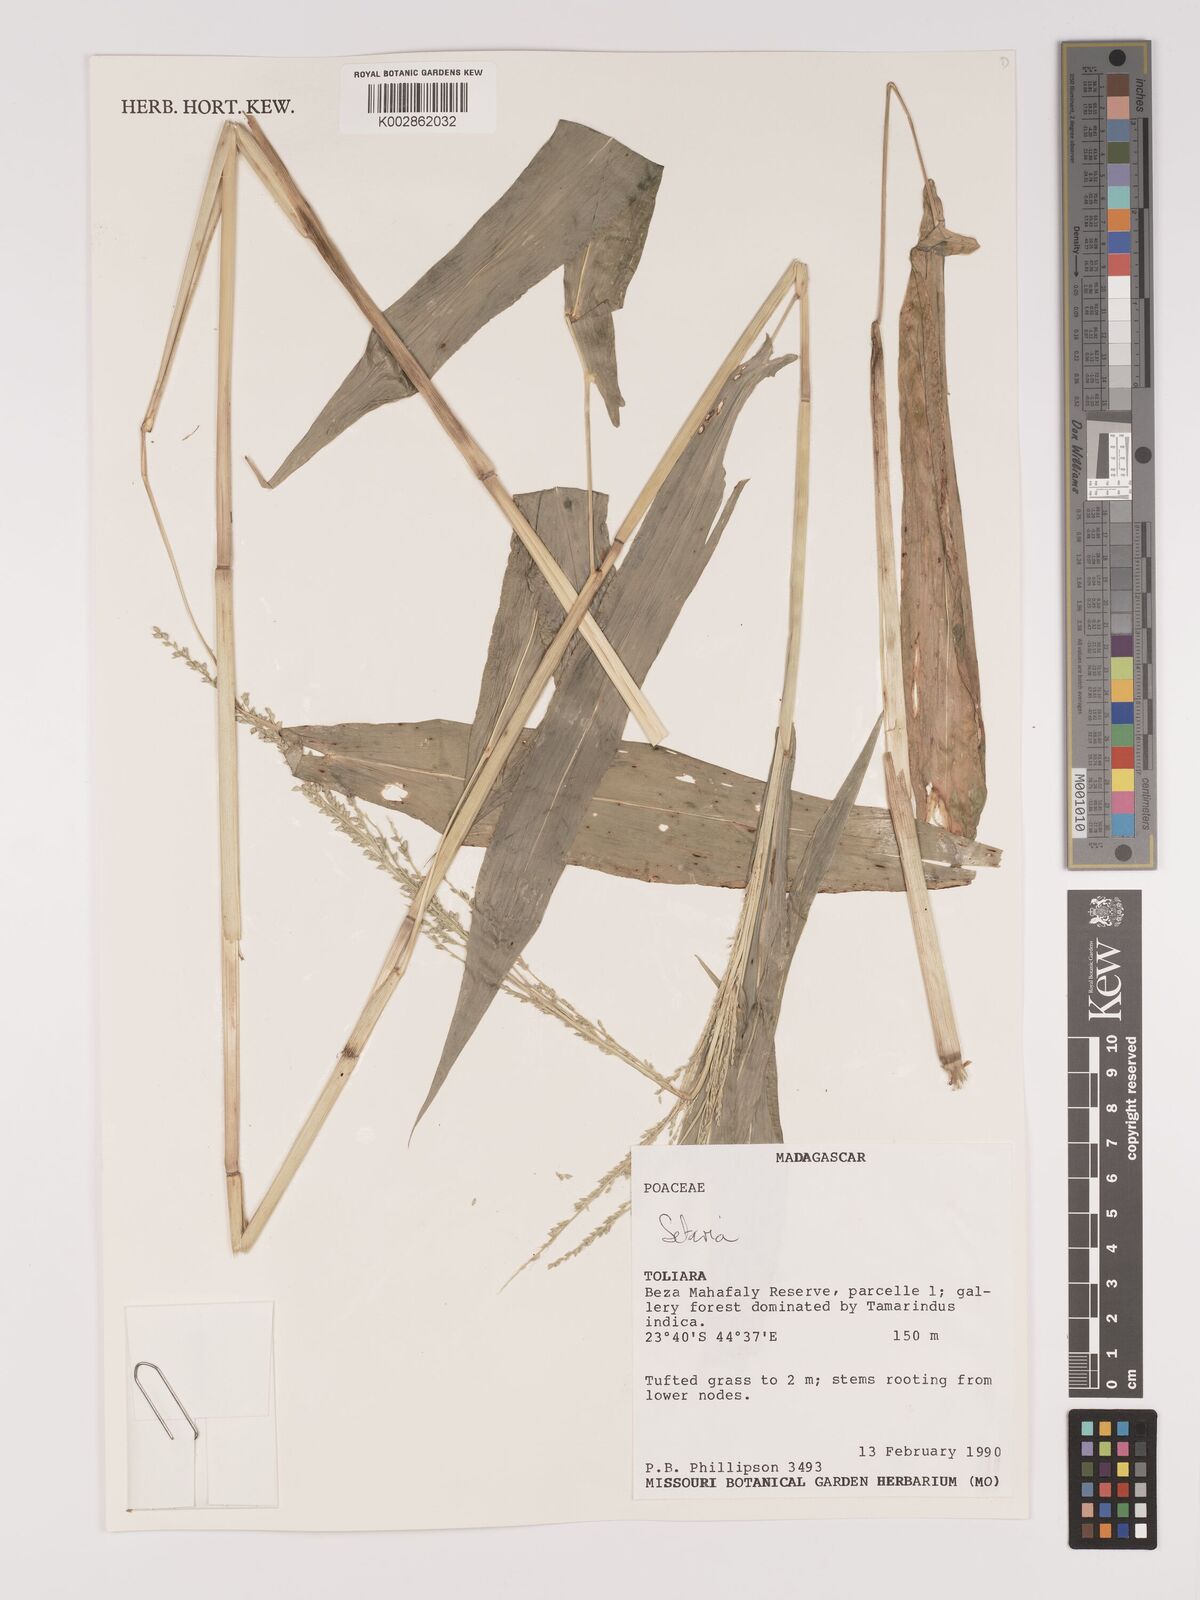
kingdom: Plantae
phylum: Tracheophyta
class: Liliopsida
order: Poales
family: Poaceae
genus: Setaria
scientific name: Setaria
